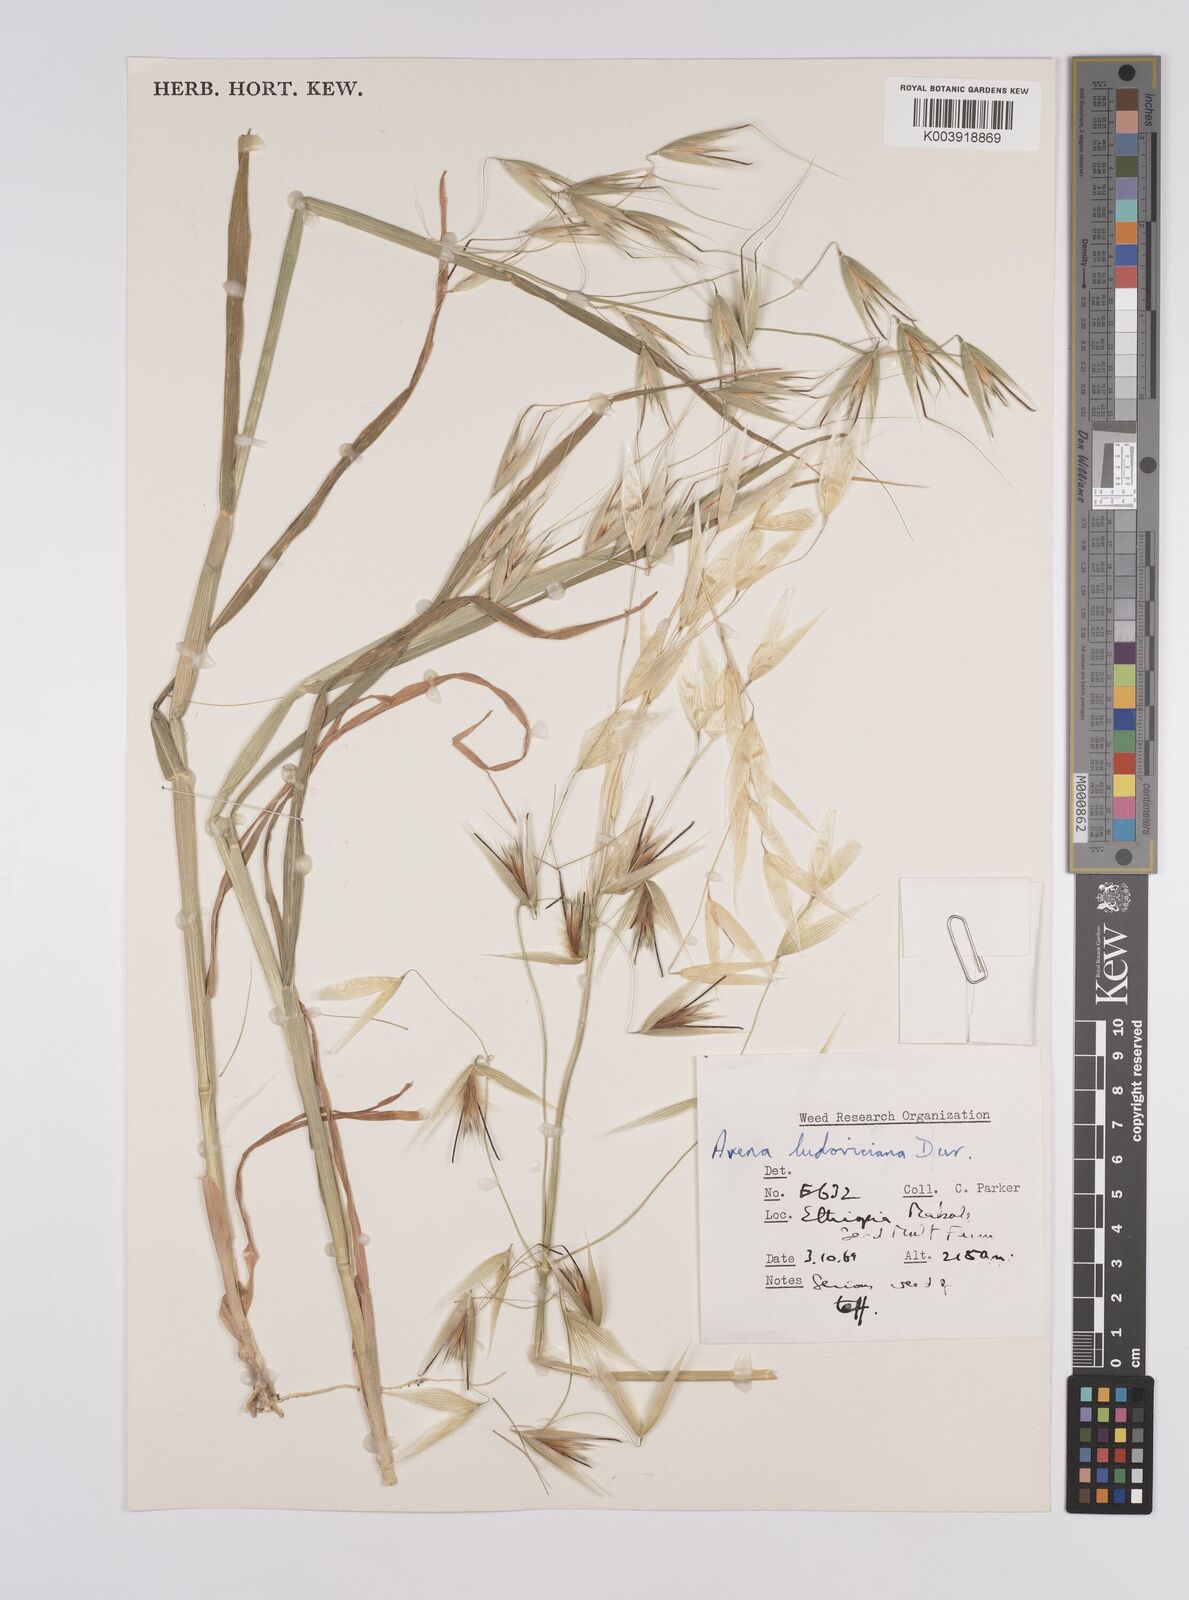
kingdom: Plantae
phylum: Tracheophyta
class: Liliopsida
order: Poales
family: Poaceae
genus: Avena
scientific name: Avena sterilis
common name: Animated oat
